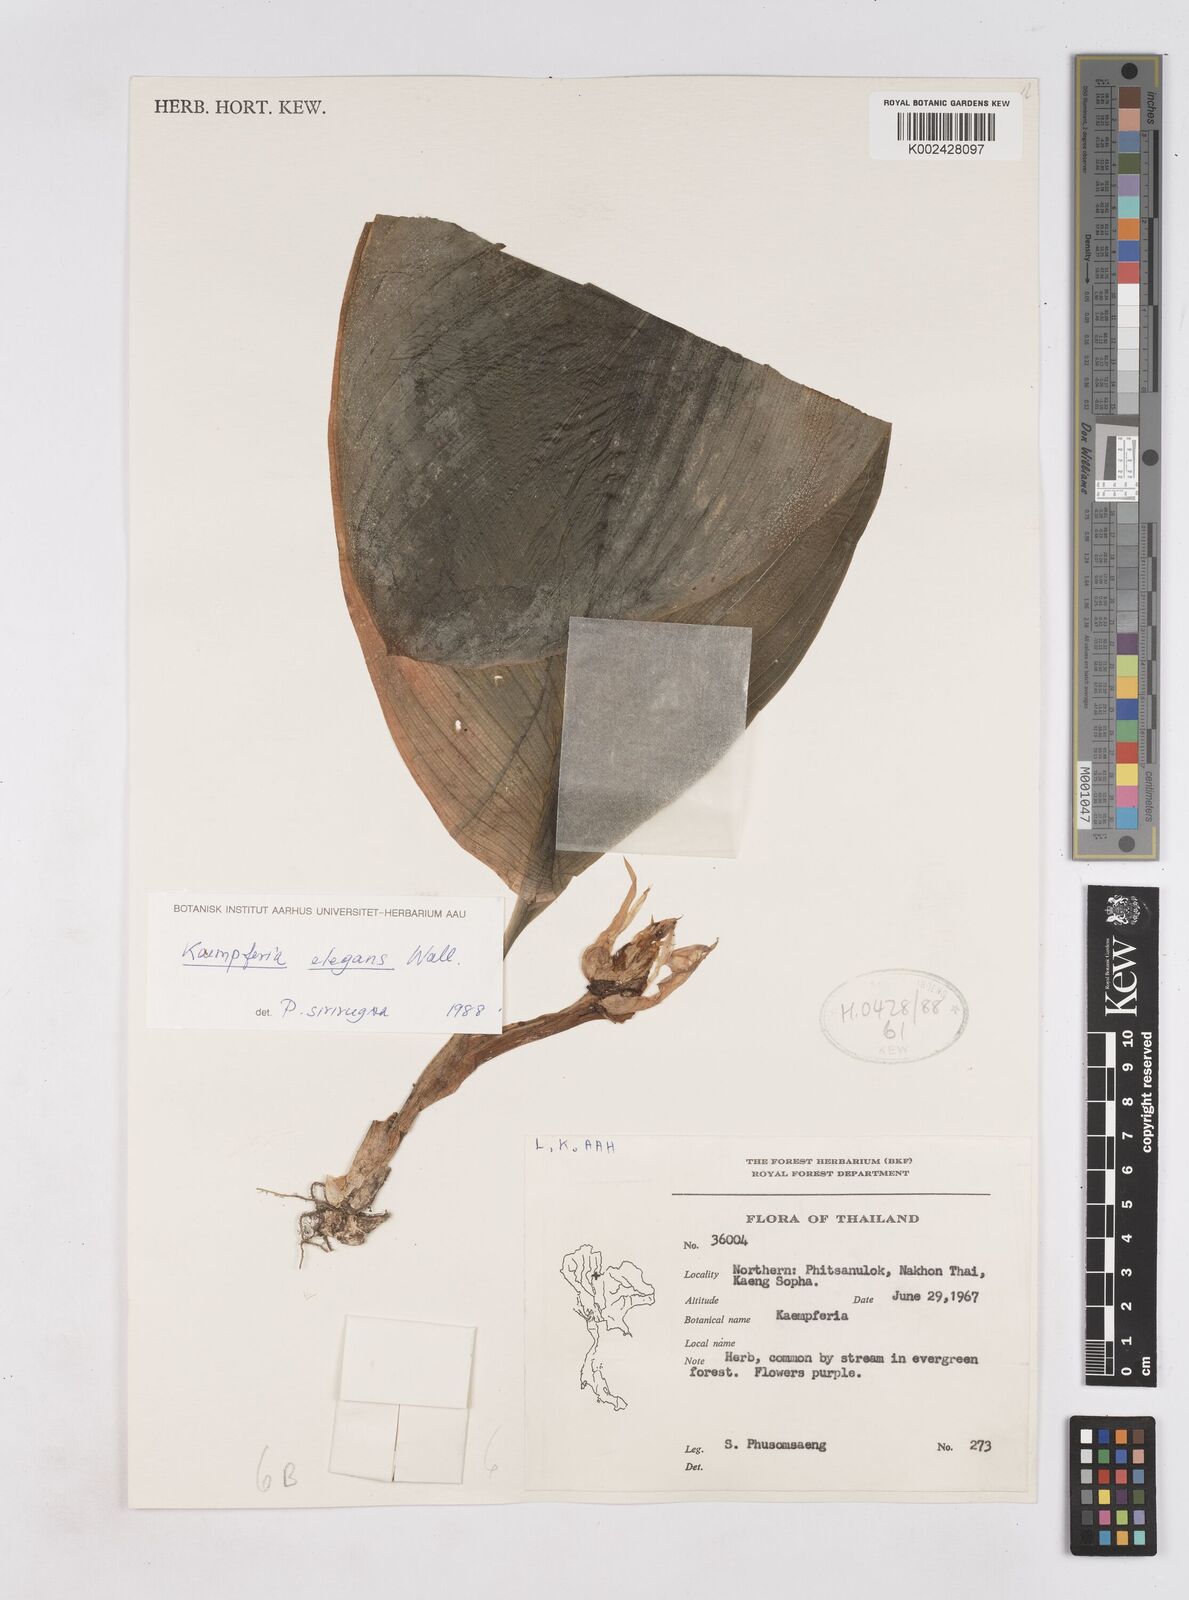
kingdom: Plantae
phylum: Tracheophyta
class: Liliopsida
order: Zingiberales
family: Zingiberaceae
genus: Kaempferia
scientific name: Kaempferia elegans
